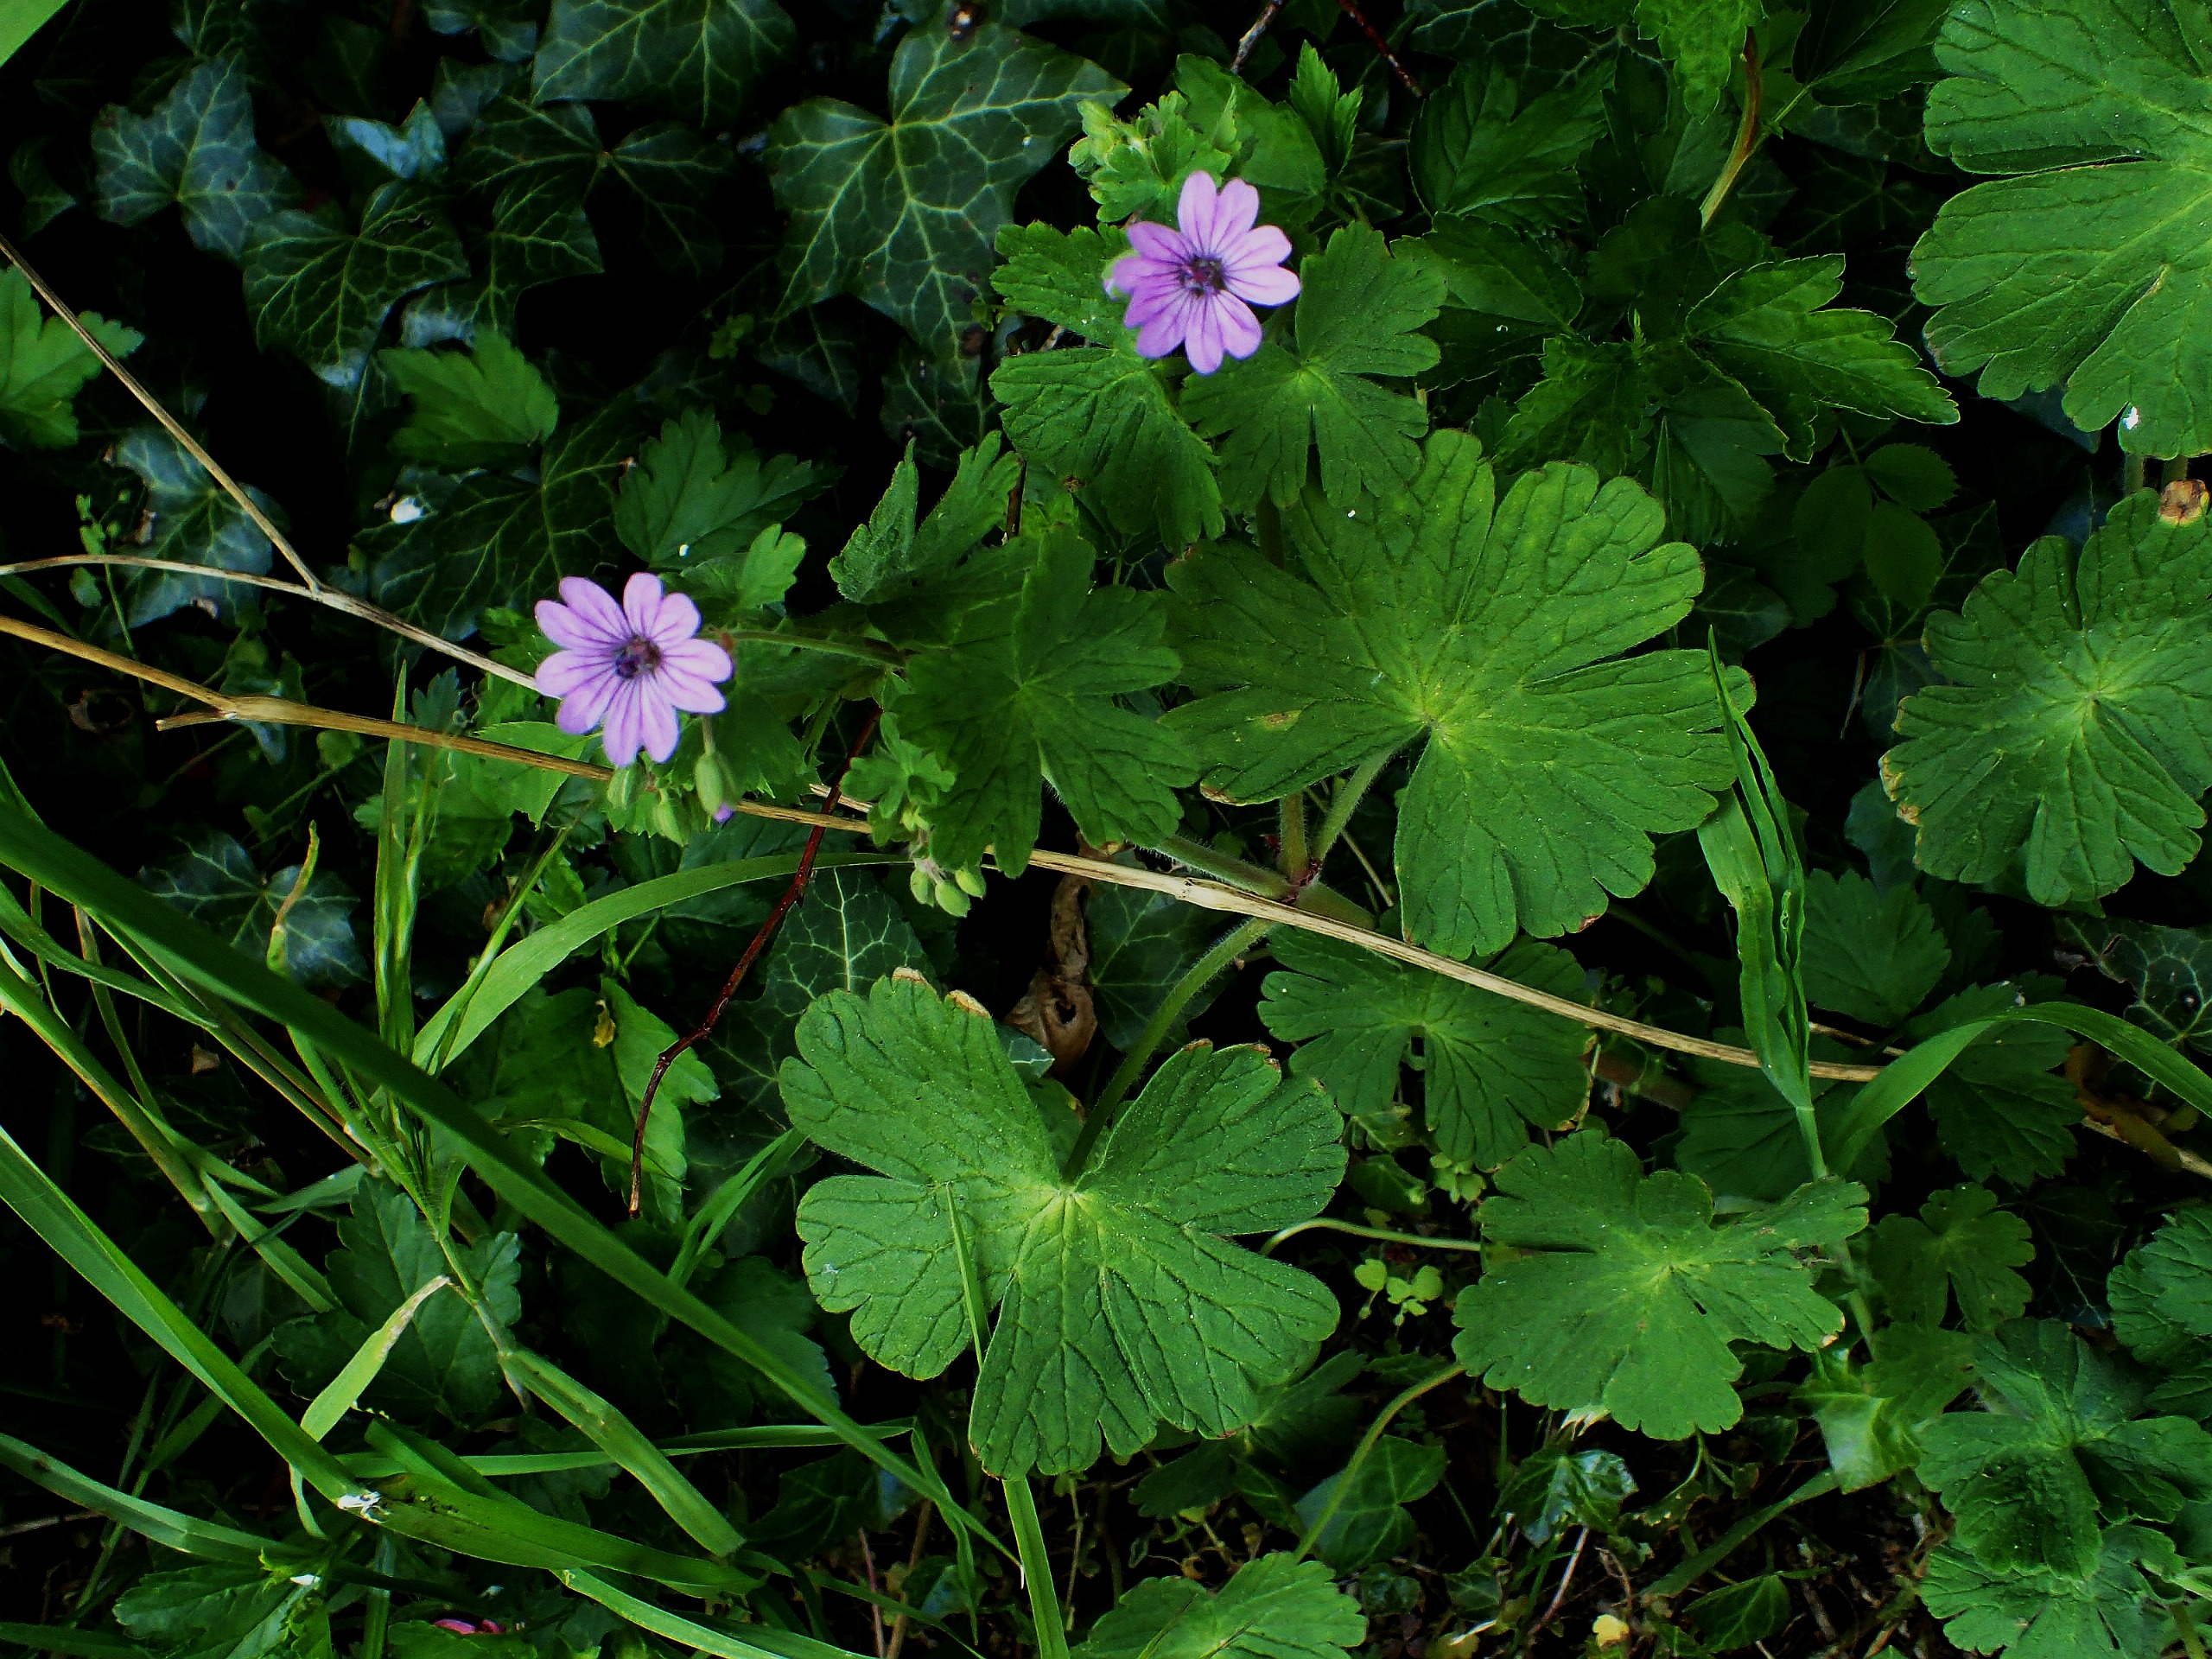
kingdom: Plantae
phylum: Tracheophyta
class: Magnoliopsida
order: Geraniales
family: Geraniaceae
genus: Geranium
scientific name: Geranium pyrenaicum
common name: Pyrenæisk storkenæb
